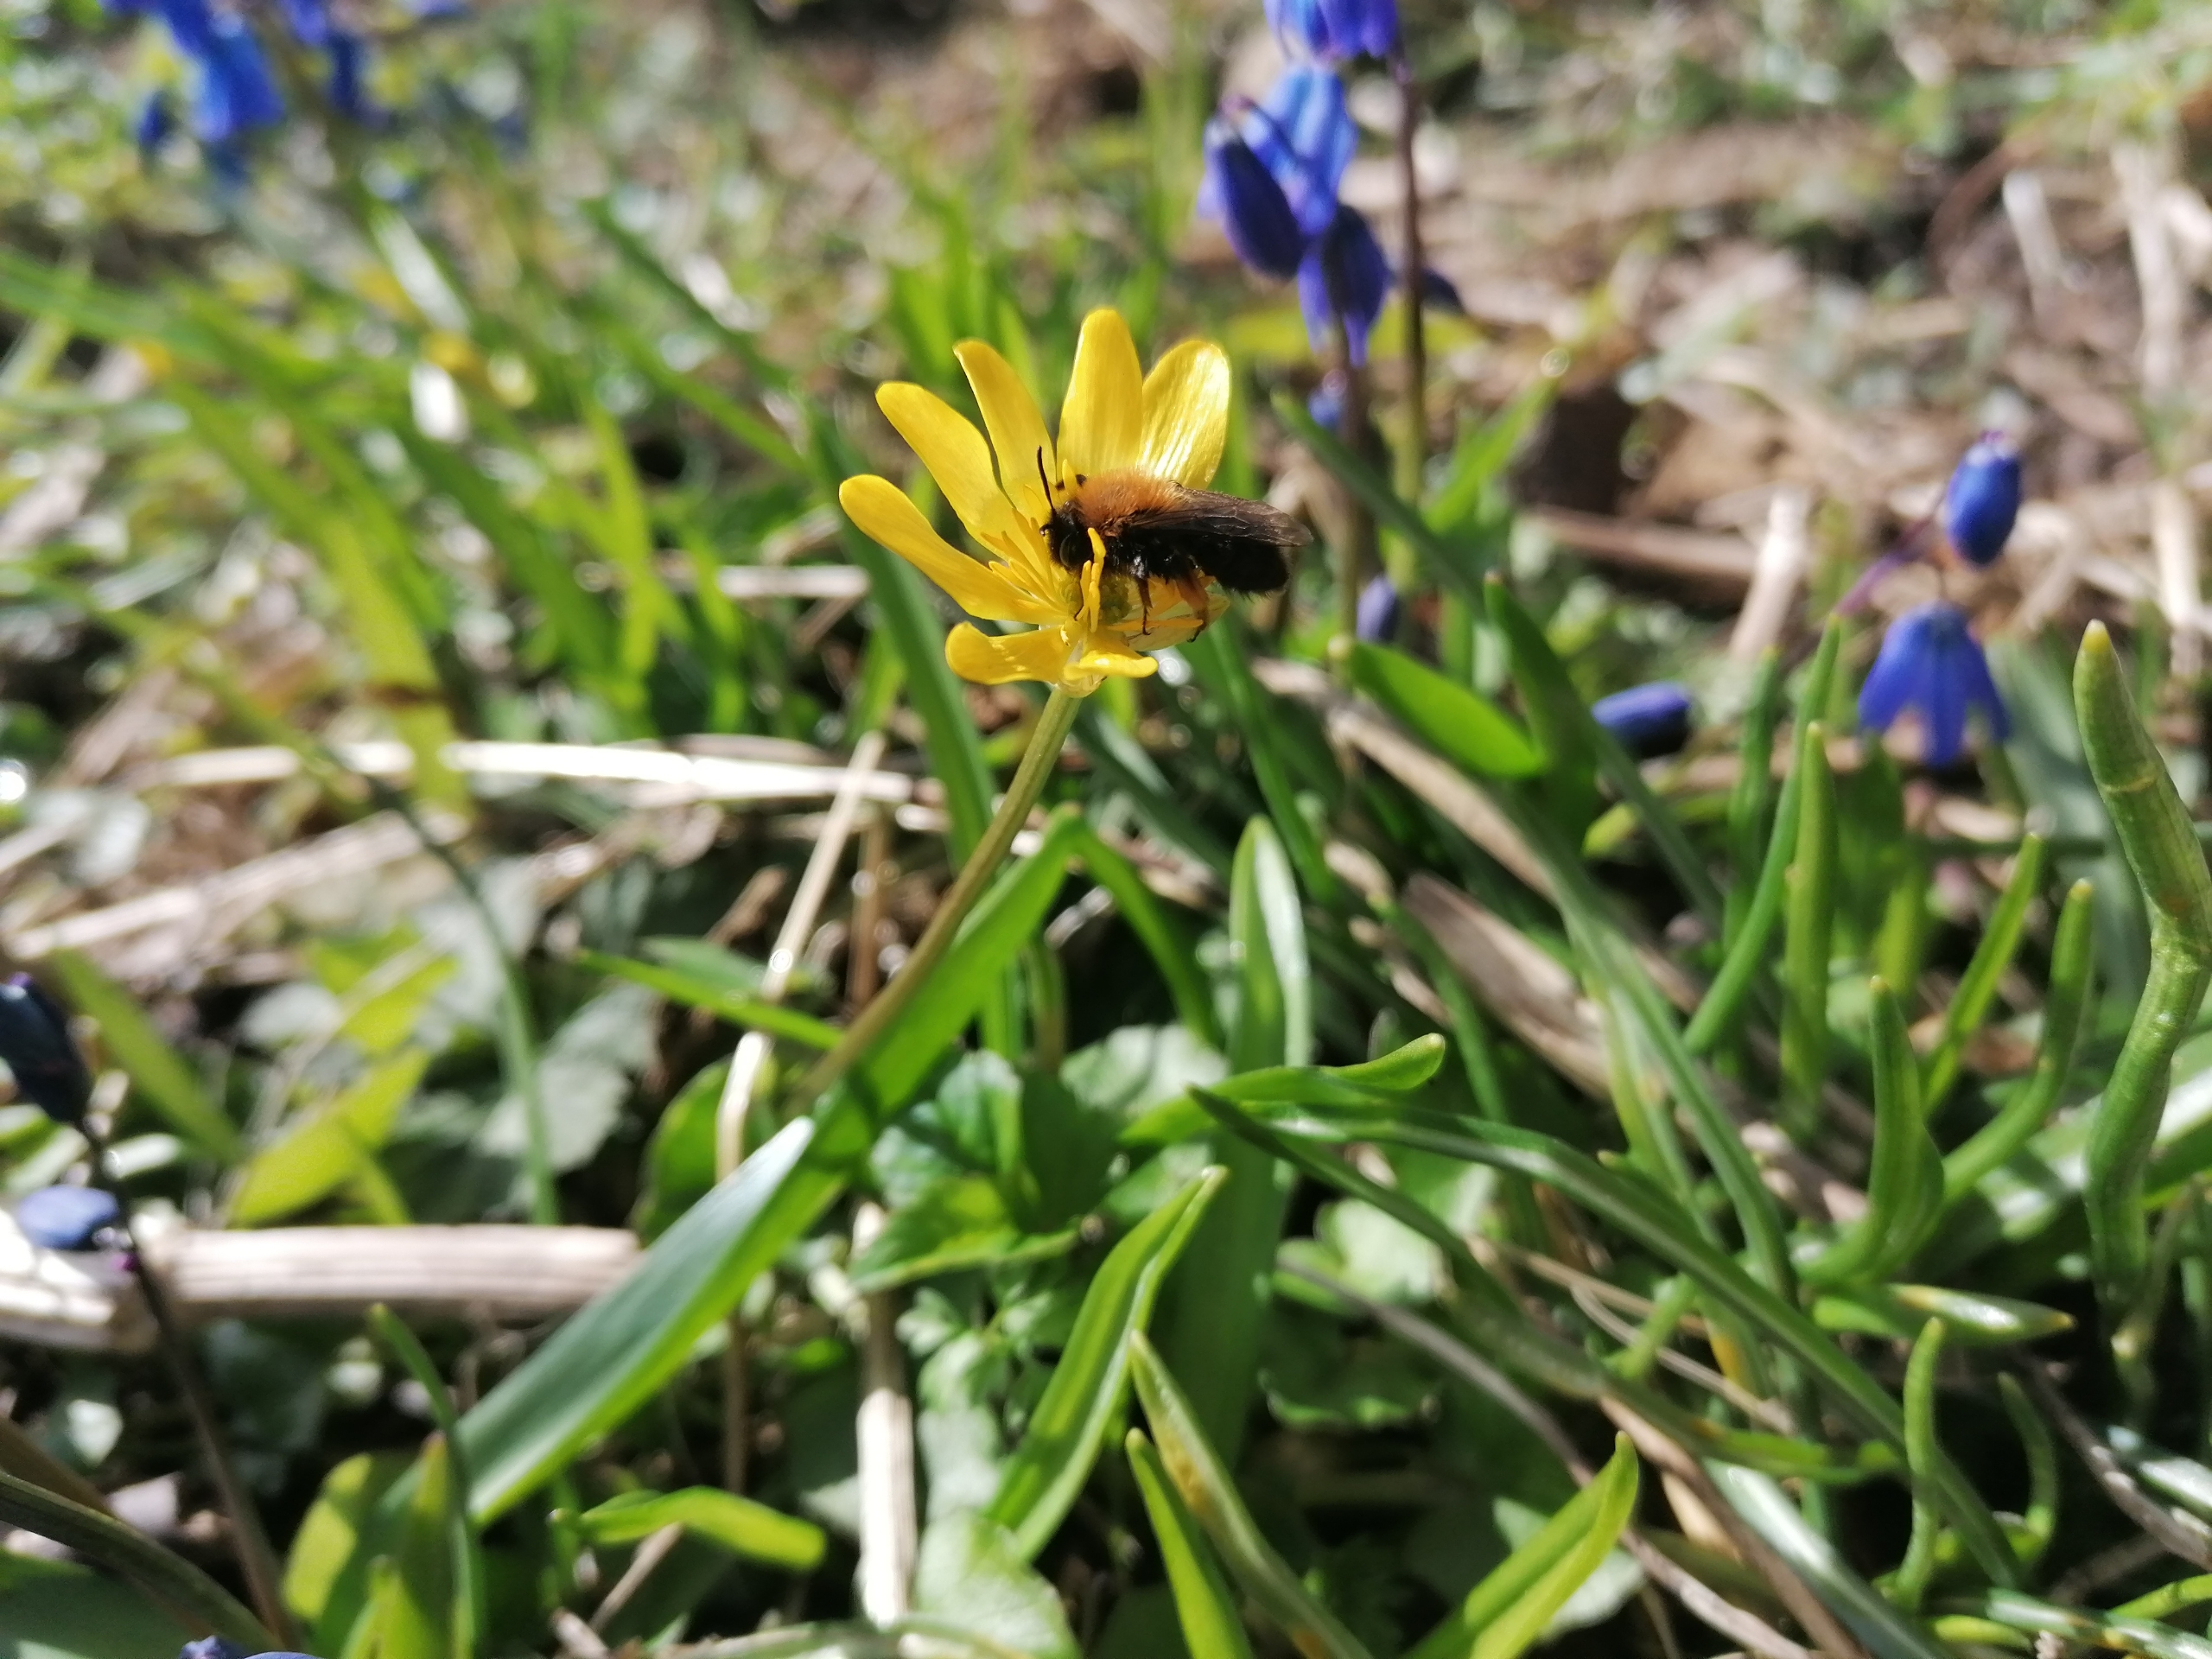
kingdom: Animalia
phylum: Arthropoda
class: Insecta
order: Hymenoptera
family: Andrenidae
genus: Andrena
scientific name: Andrena clarkella
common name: Rødbrystet jordbi
